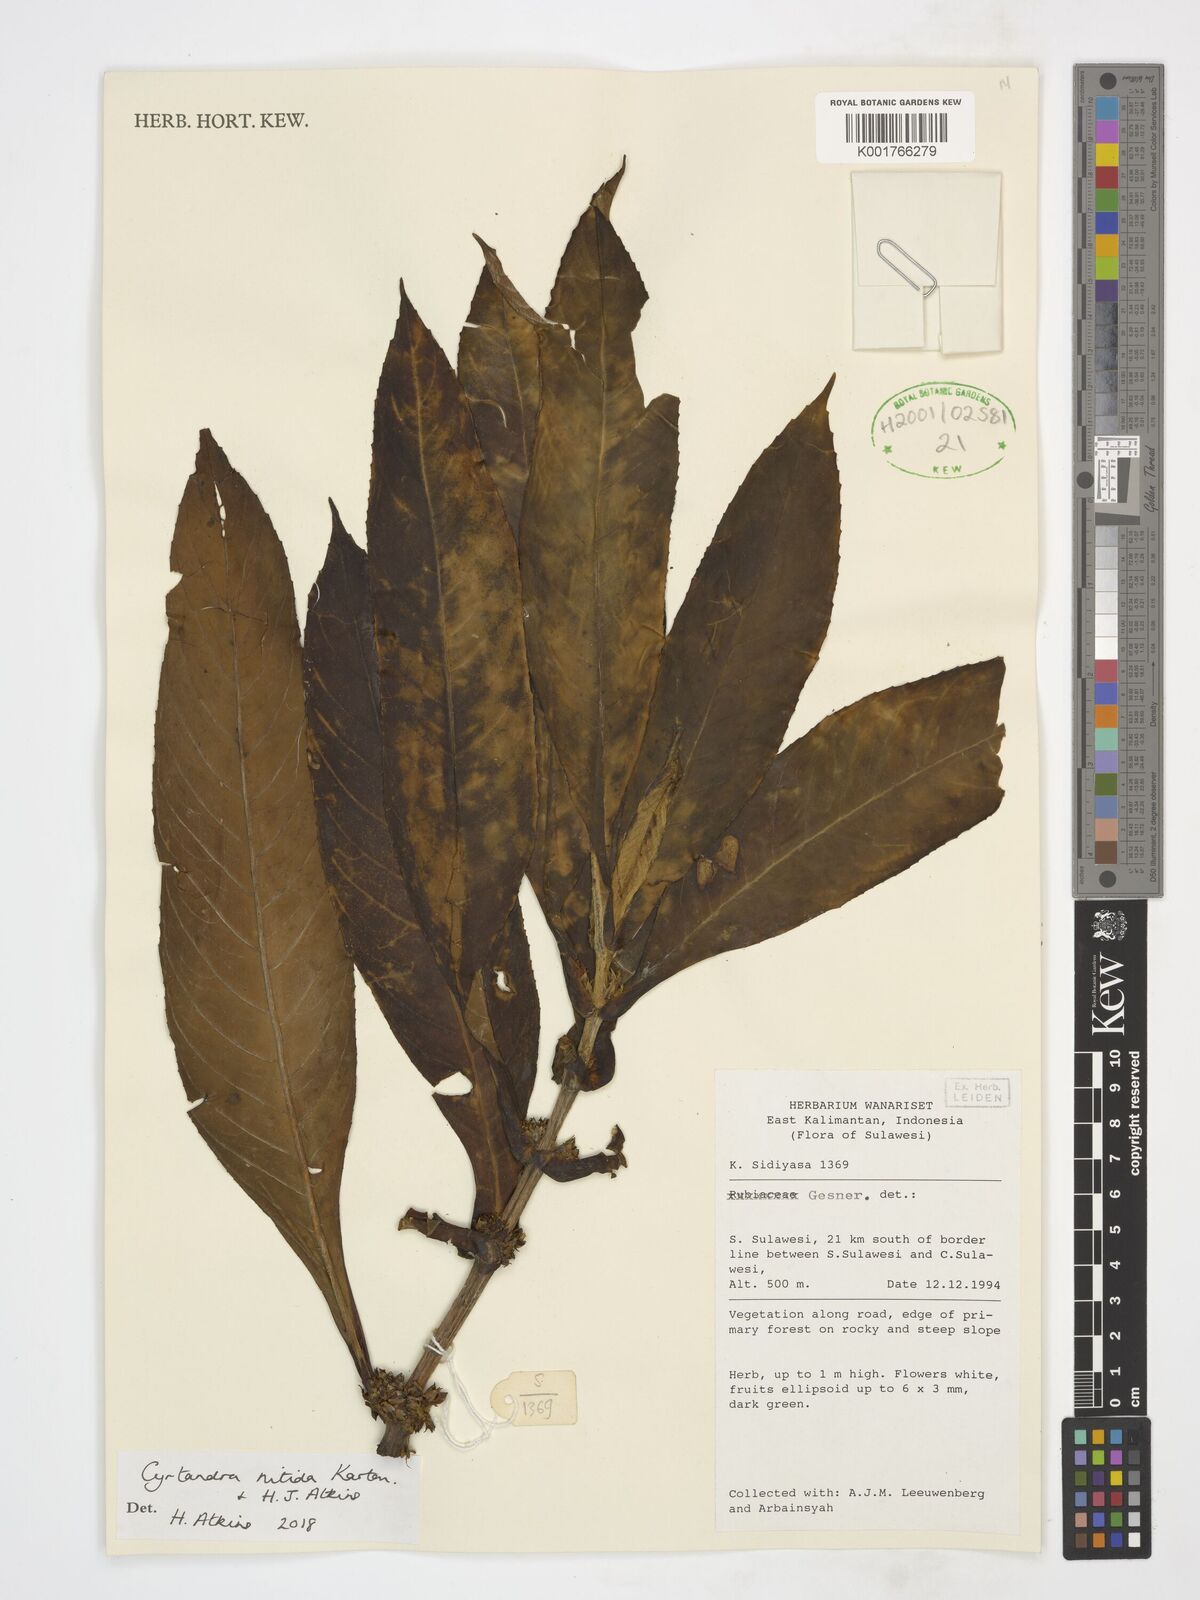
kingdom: Plantae
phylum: Tracheophyta
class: Magnoliopsida
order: Lamiales
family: Gesneriaceae
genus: Cyrtandra
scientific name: Cyrtandra nitida
